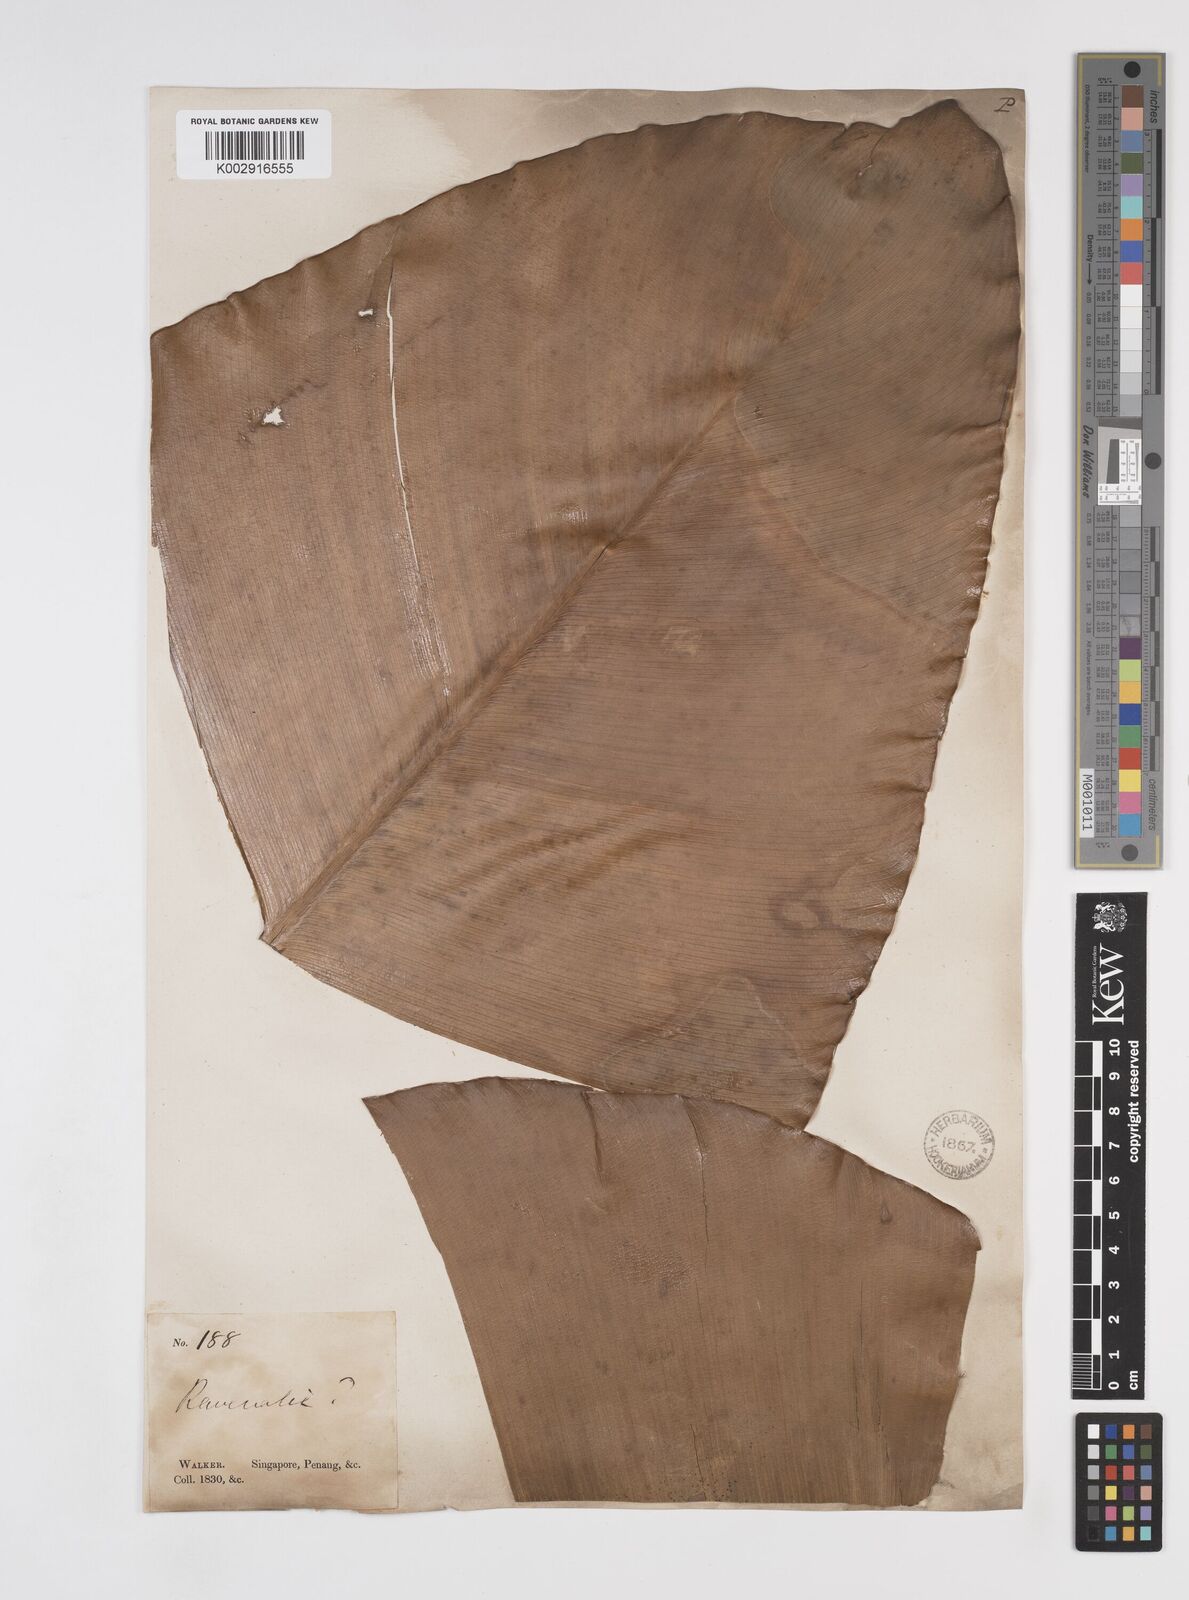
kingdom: Plantae
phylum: Tracheophyta
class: Liliopsida
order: Zingiberales
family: Strelitziaceae
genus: Ravenala
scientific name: Ravenala
